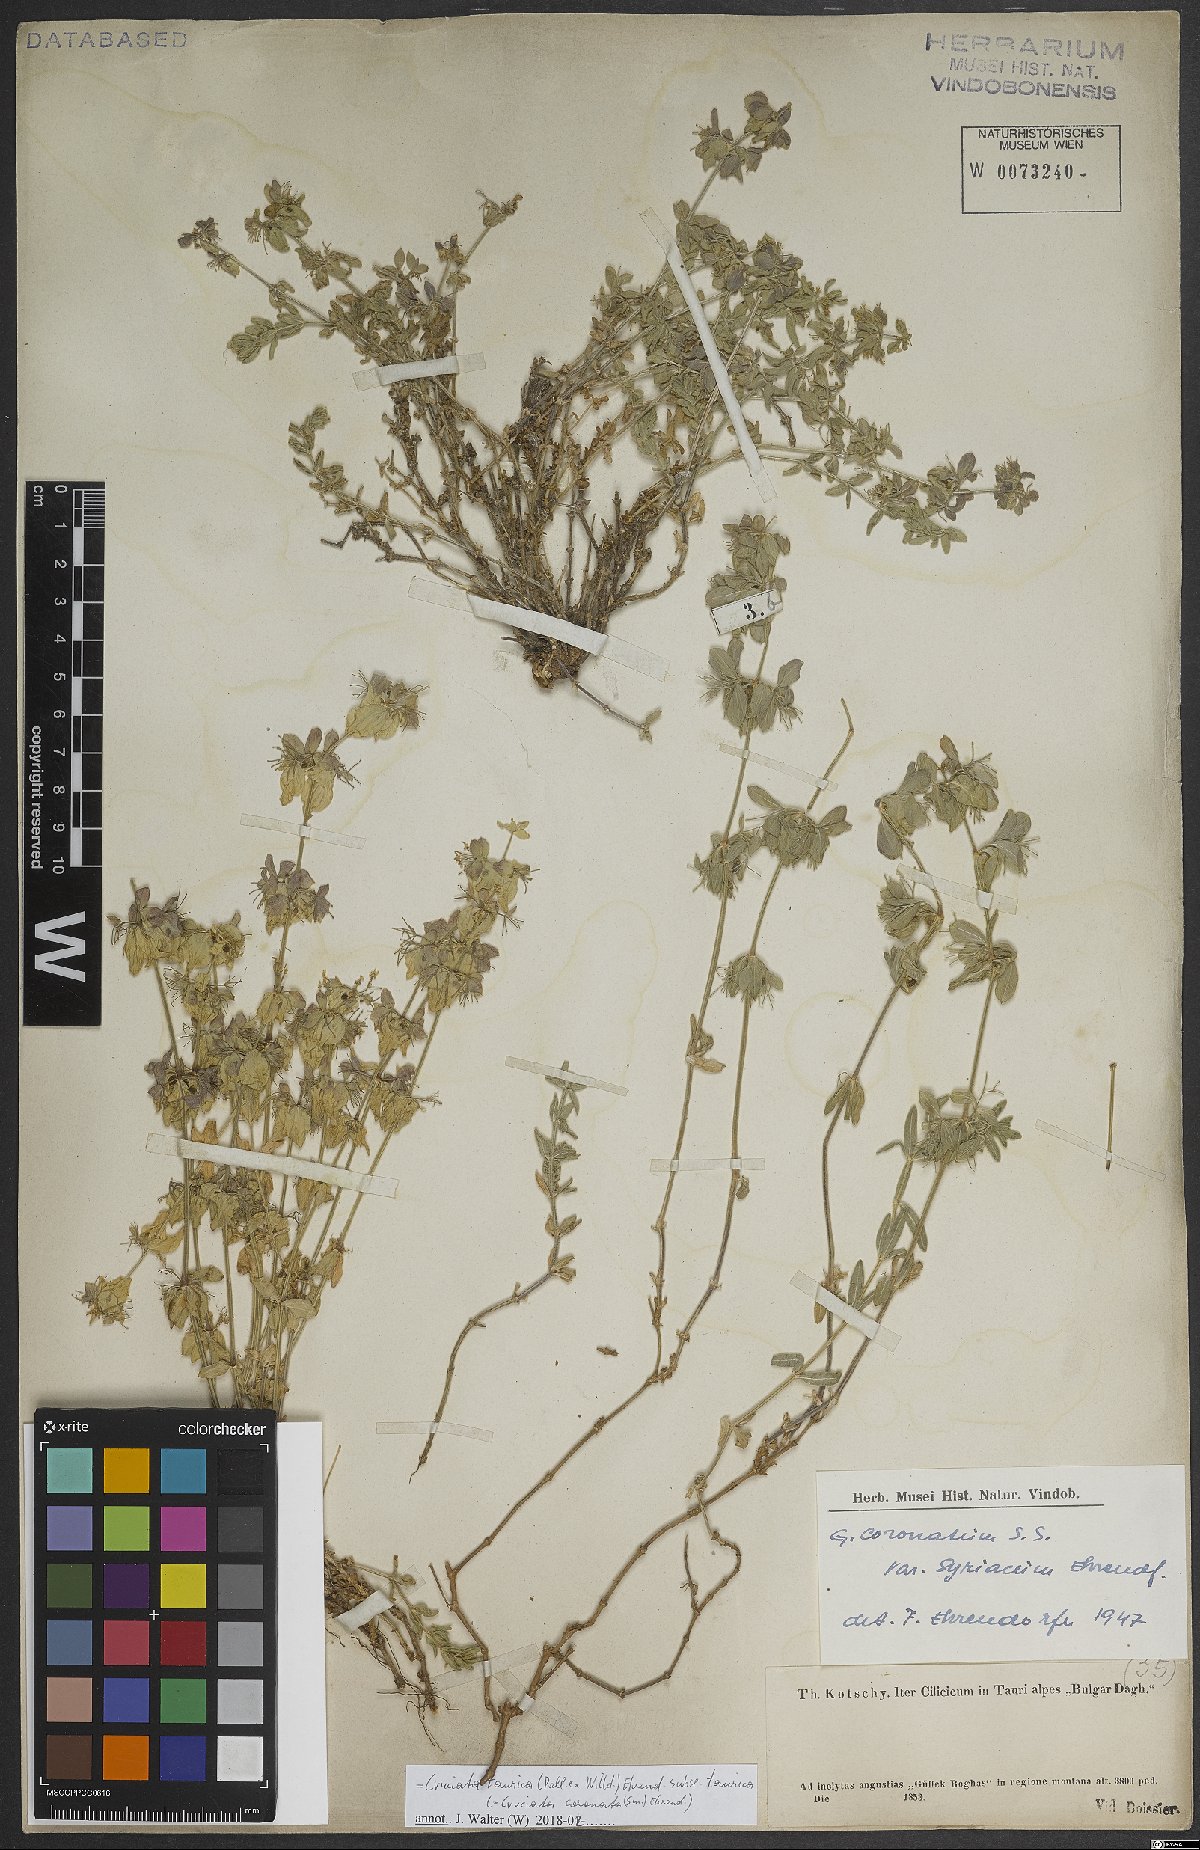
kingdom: Plantae
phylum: Tracheophyta
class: Magnoliopsida
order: Gentianales
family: Rubiaceae
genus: Cruciata
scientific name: Cruciata taurica
